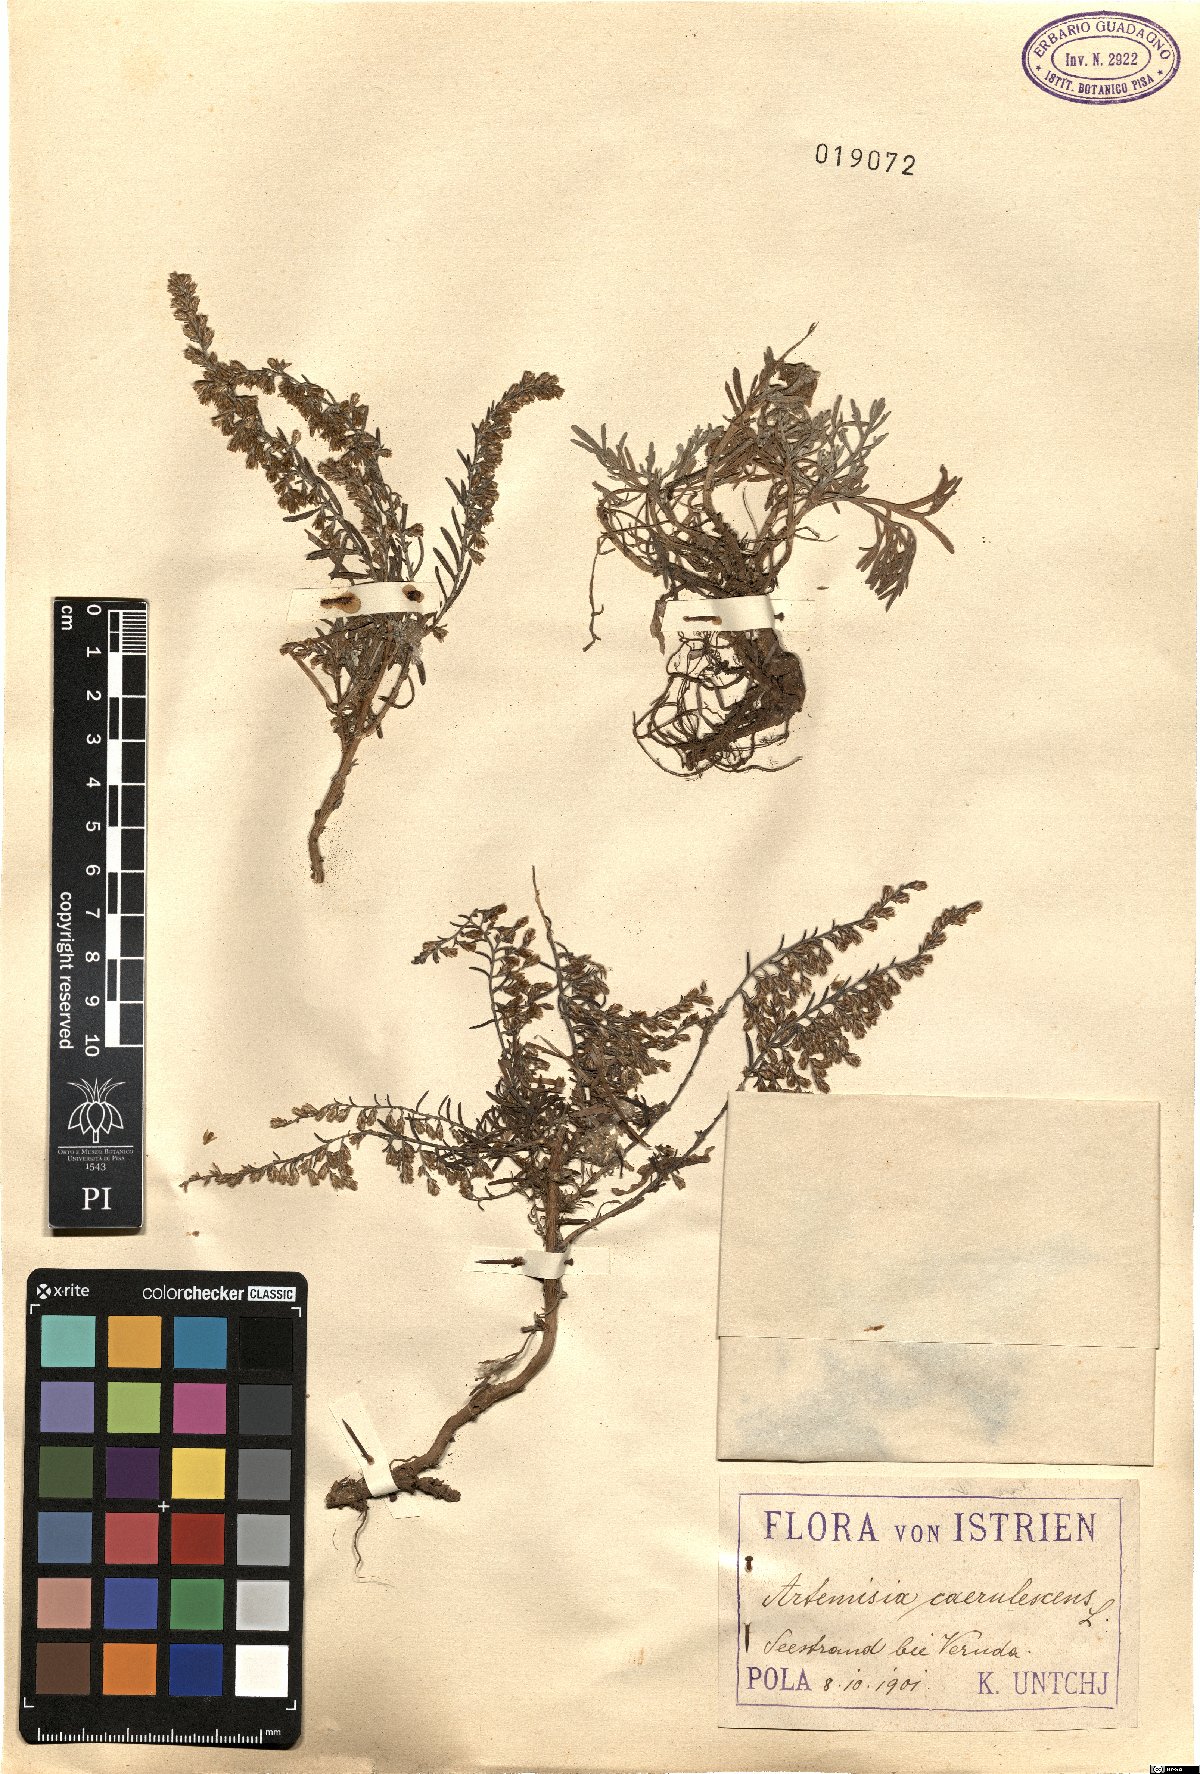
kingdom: Plantae
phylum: Tracheophyta
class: Magnoliopsida
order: Asterales
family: Asteraceae
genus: Artemisia
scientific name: Artemisia caerulescens
